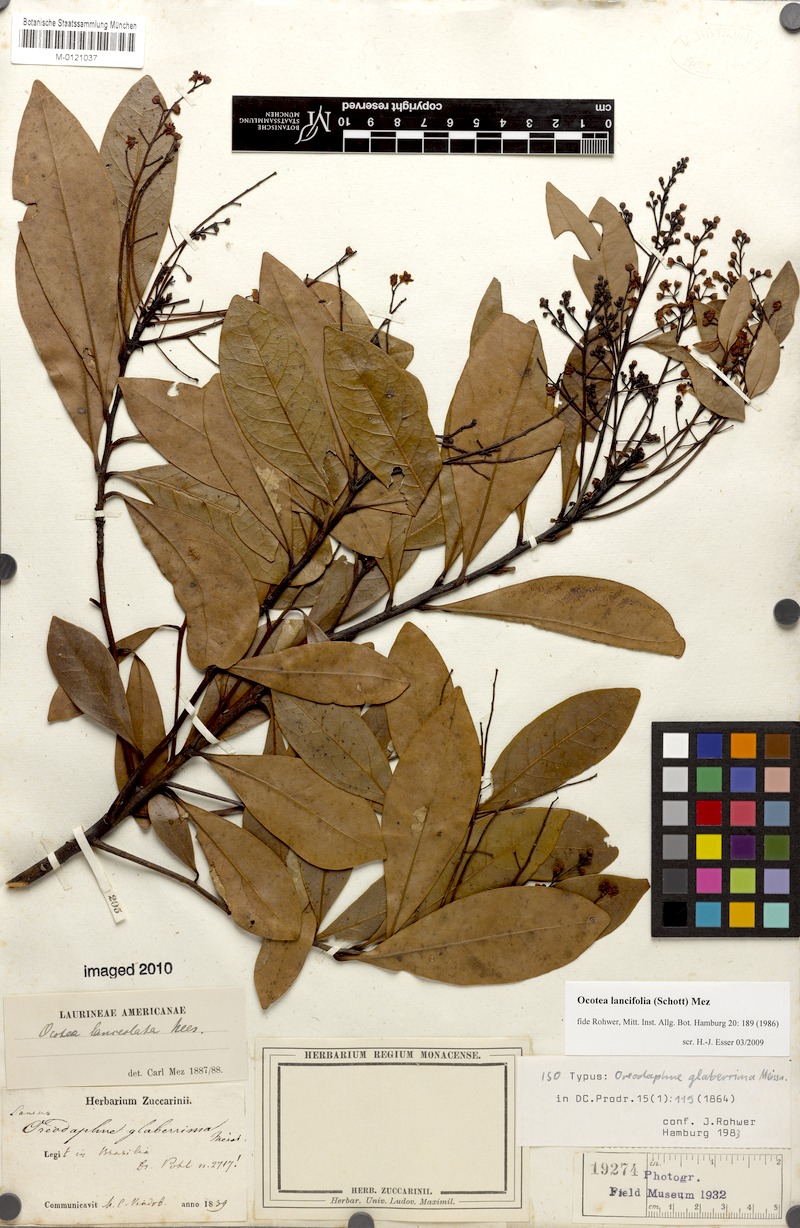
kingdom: Plantae
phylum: Tracheophyta
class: Magnoliopsida
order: Laurales
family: Lauraceae
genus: Ocotea
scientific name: Ocotea lancifolia
